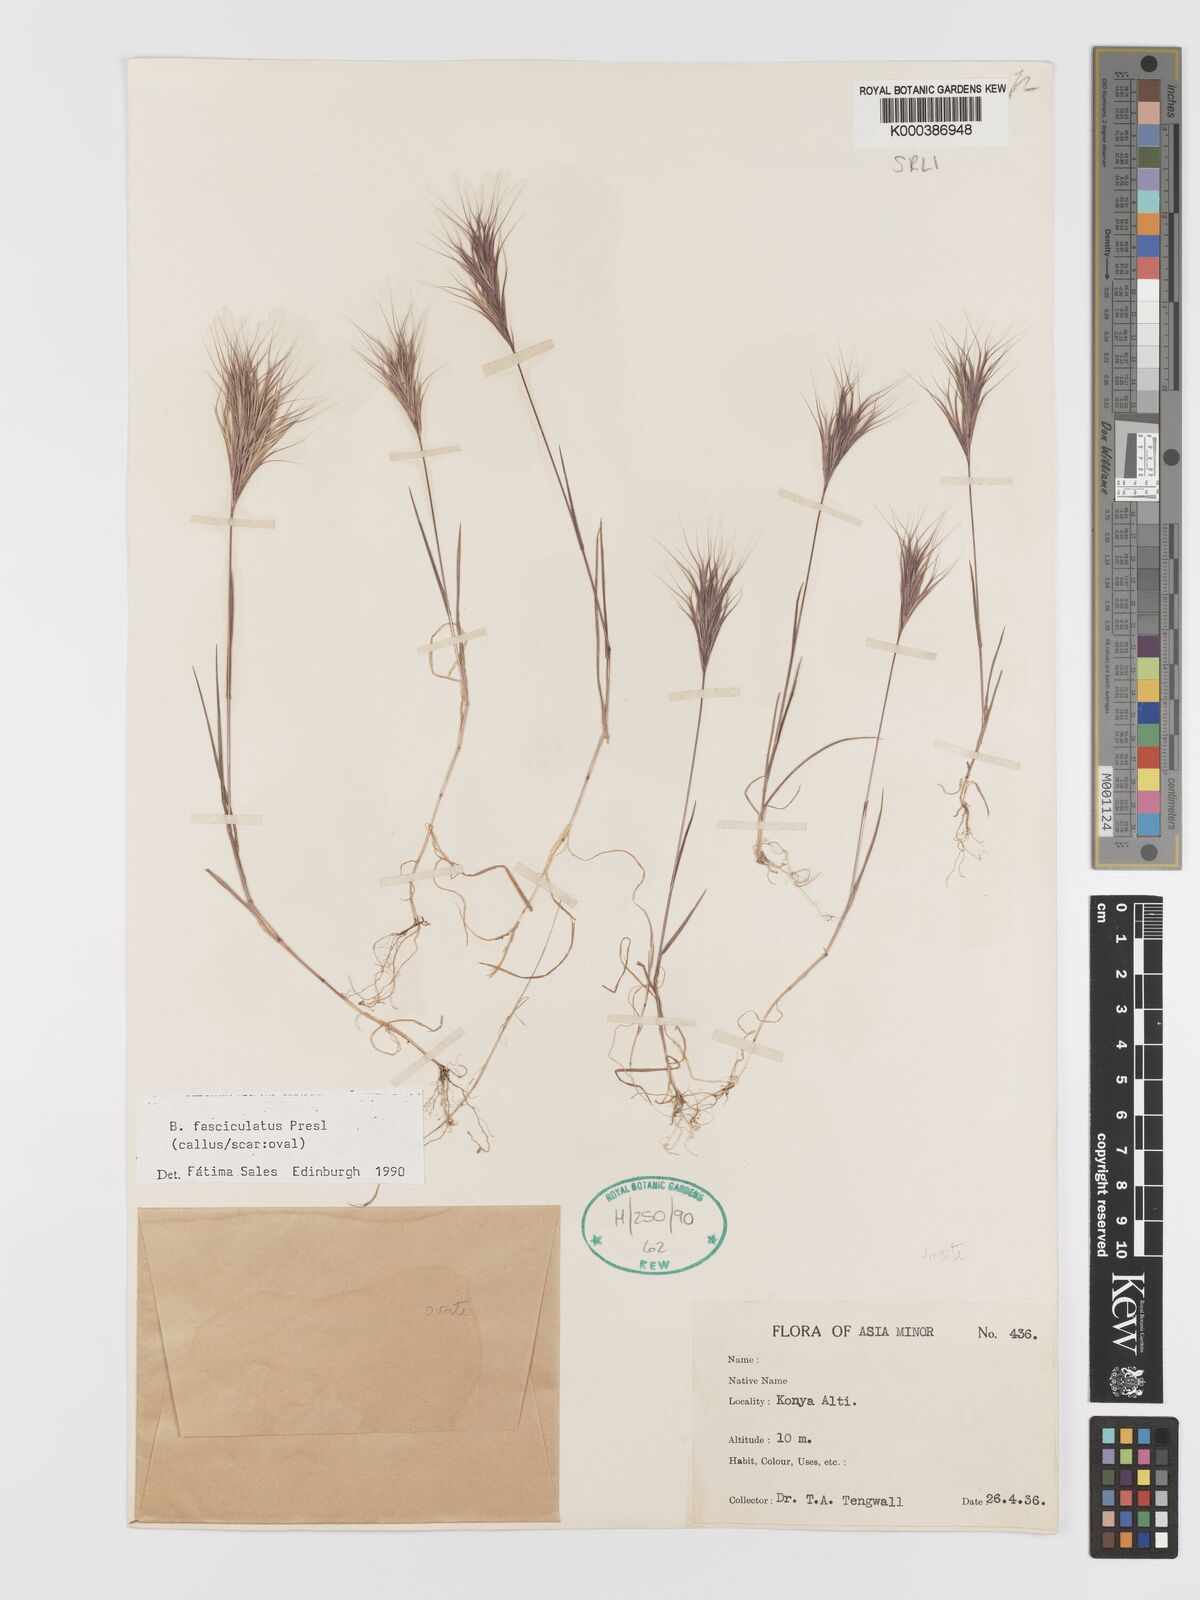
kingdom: Plantae
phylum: Tracheophyta
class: Liliopsida
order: Poales
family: Poaceae
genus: Bromus
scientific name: Bromus fasciculatus
